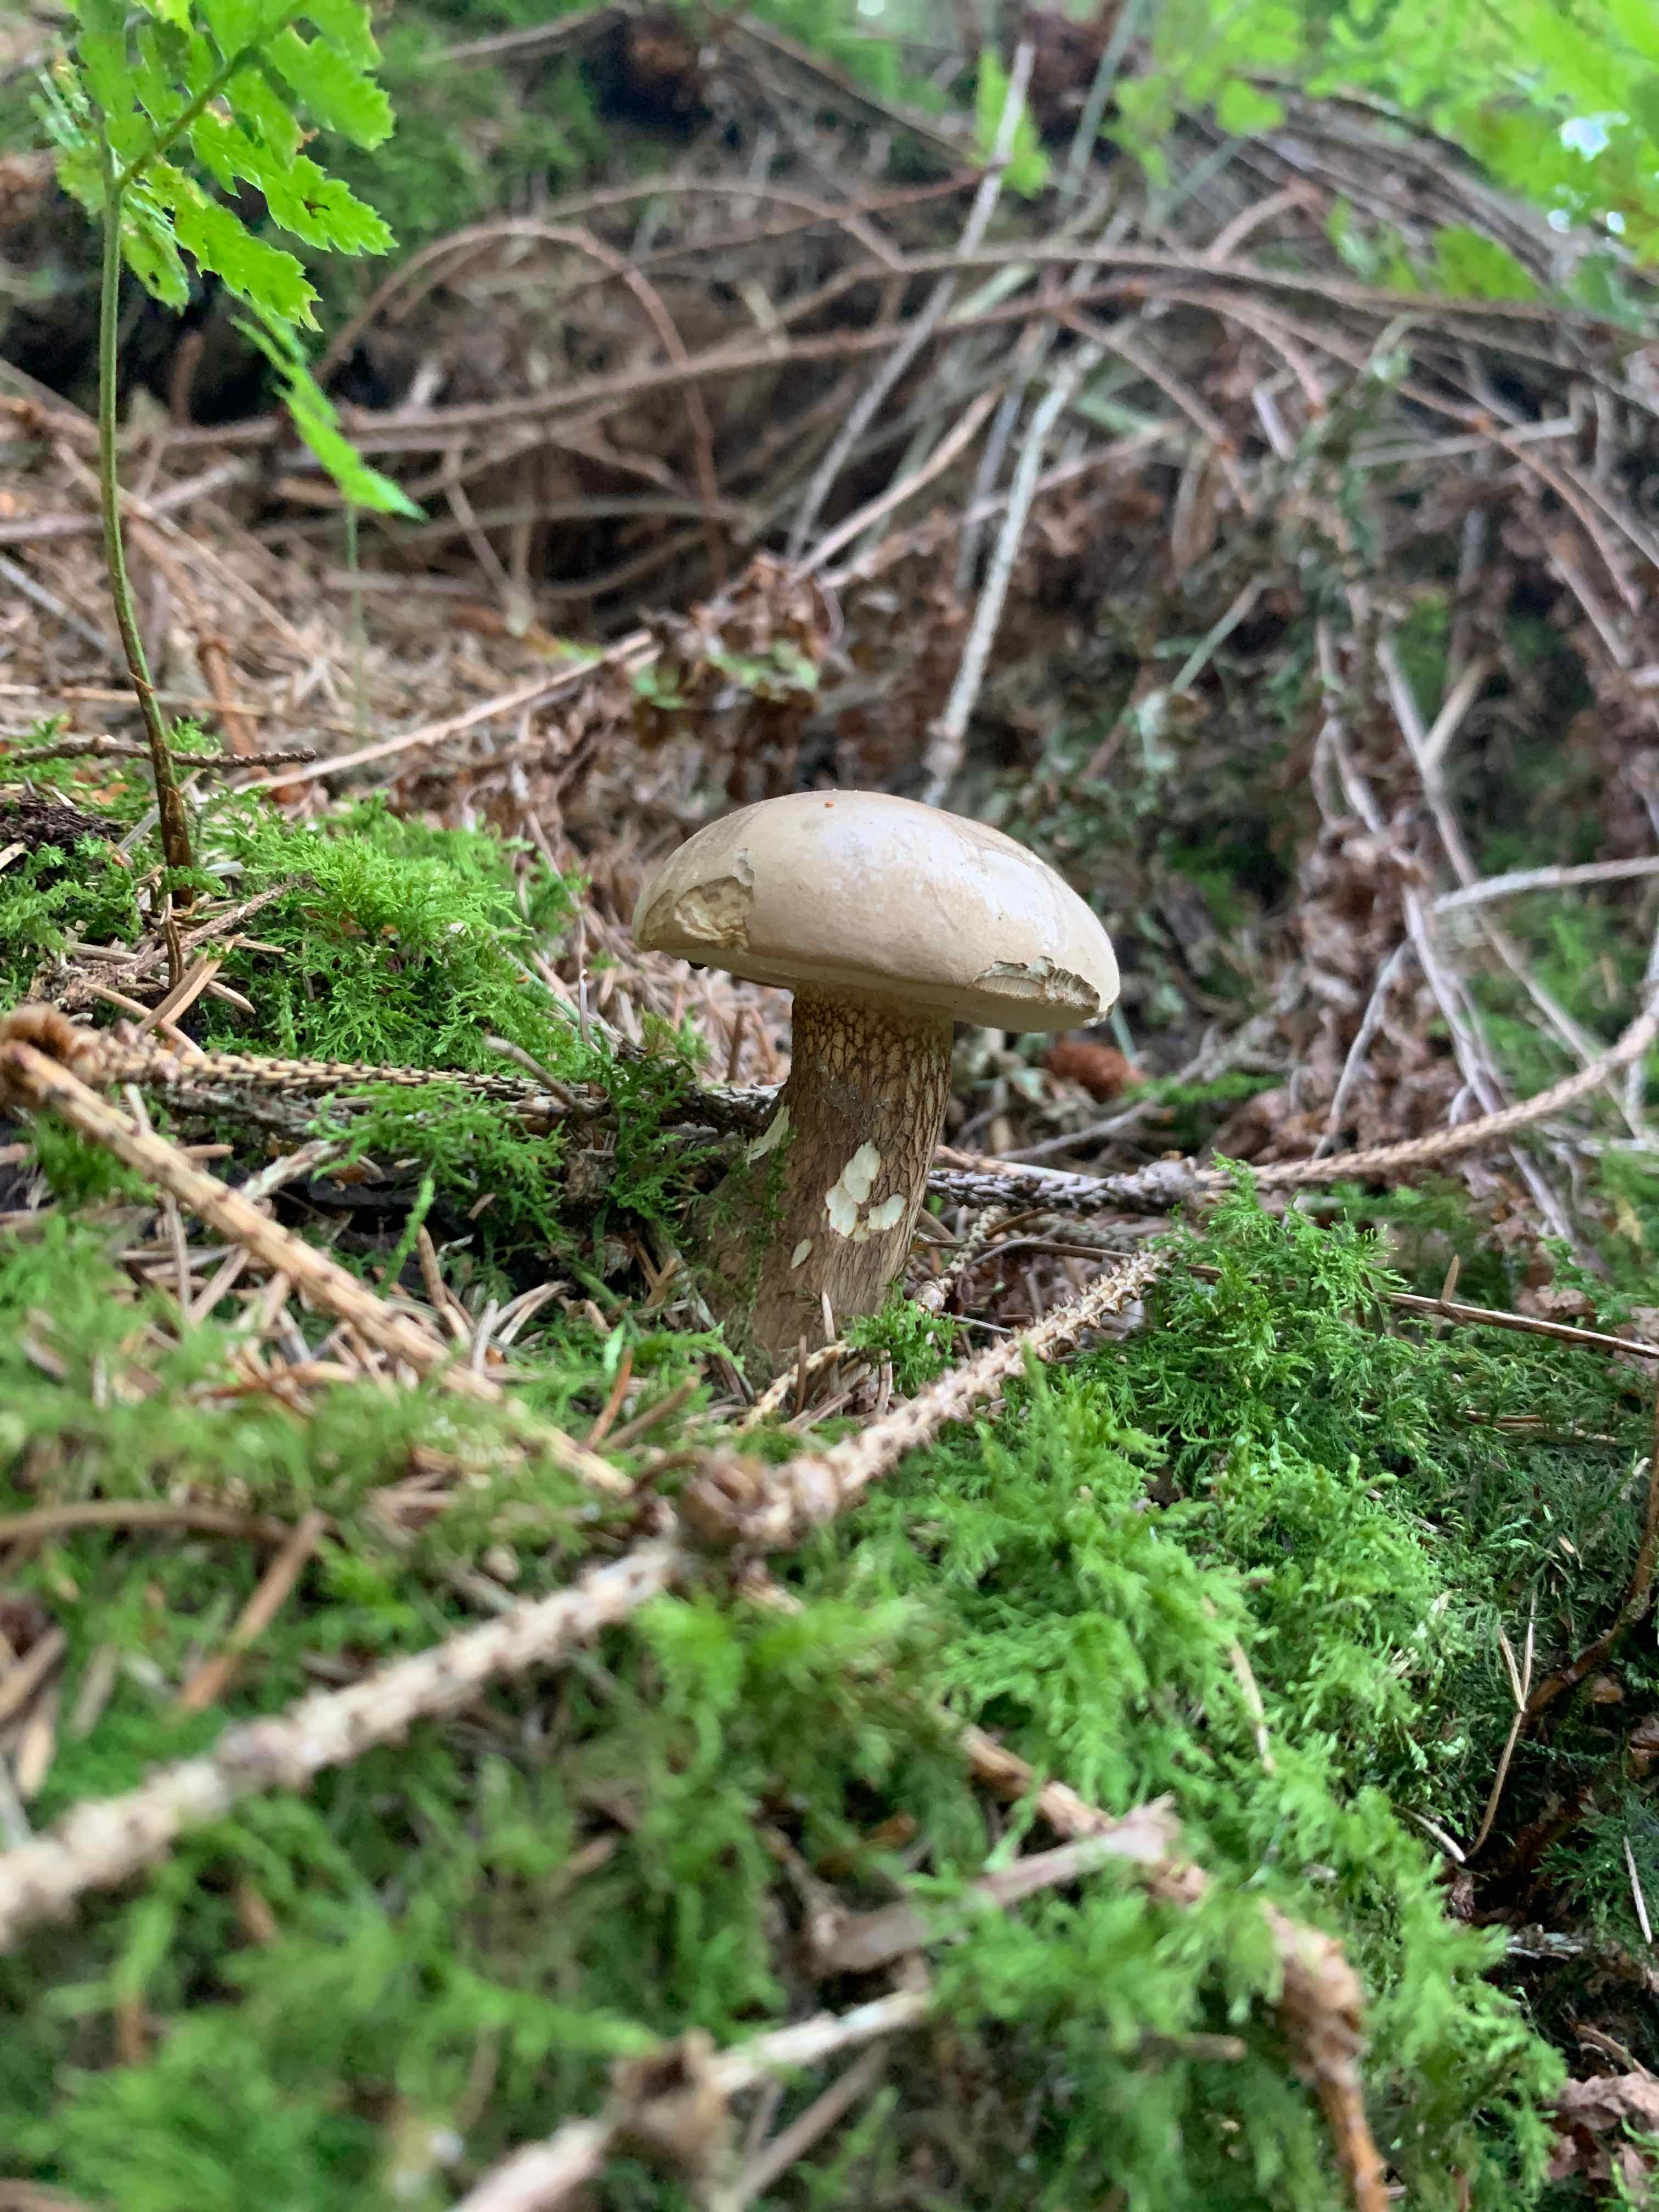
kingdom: Fungi
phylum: Basidiomycota
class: Agaricomycetes
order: Boletales
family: Boletaceae
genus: Tylopilus
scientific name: Tylopilus felleus
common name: galderørhat
